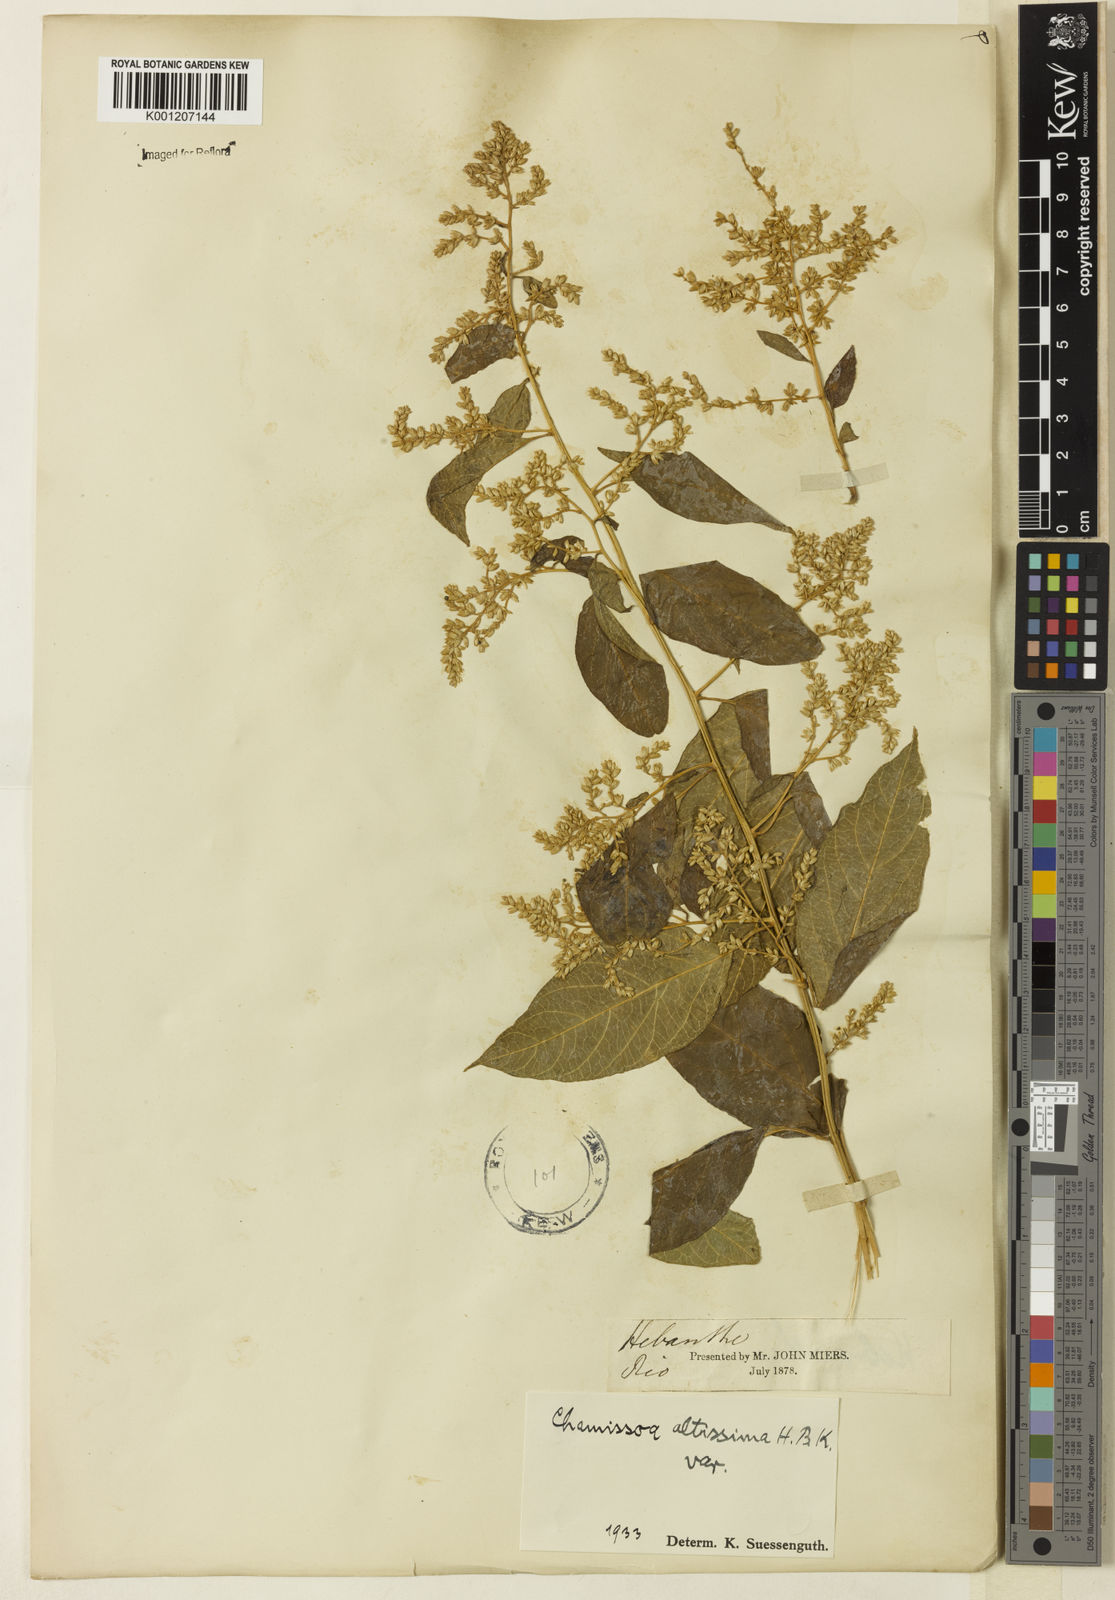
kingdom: Plantae
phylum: Tracheophyta
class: Magnoliopsida
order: Caryophyllales
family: Amaranthaceae
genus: Chamissoa
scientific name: Chamissoa altissima
